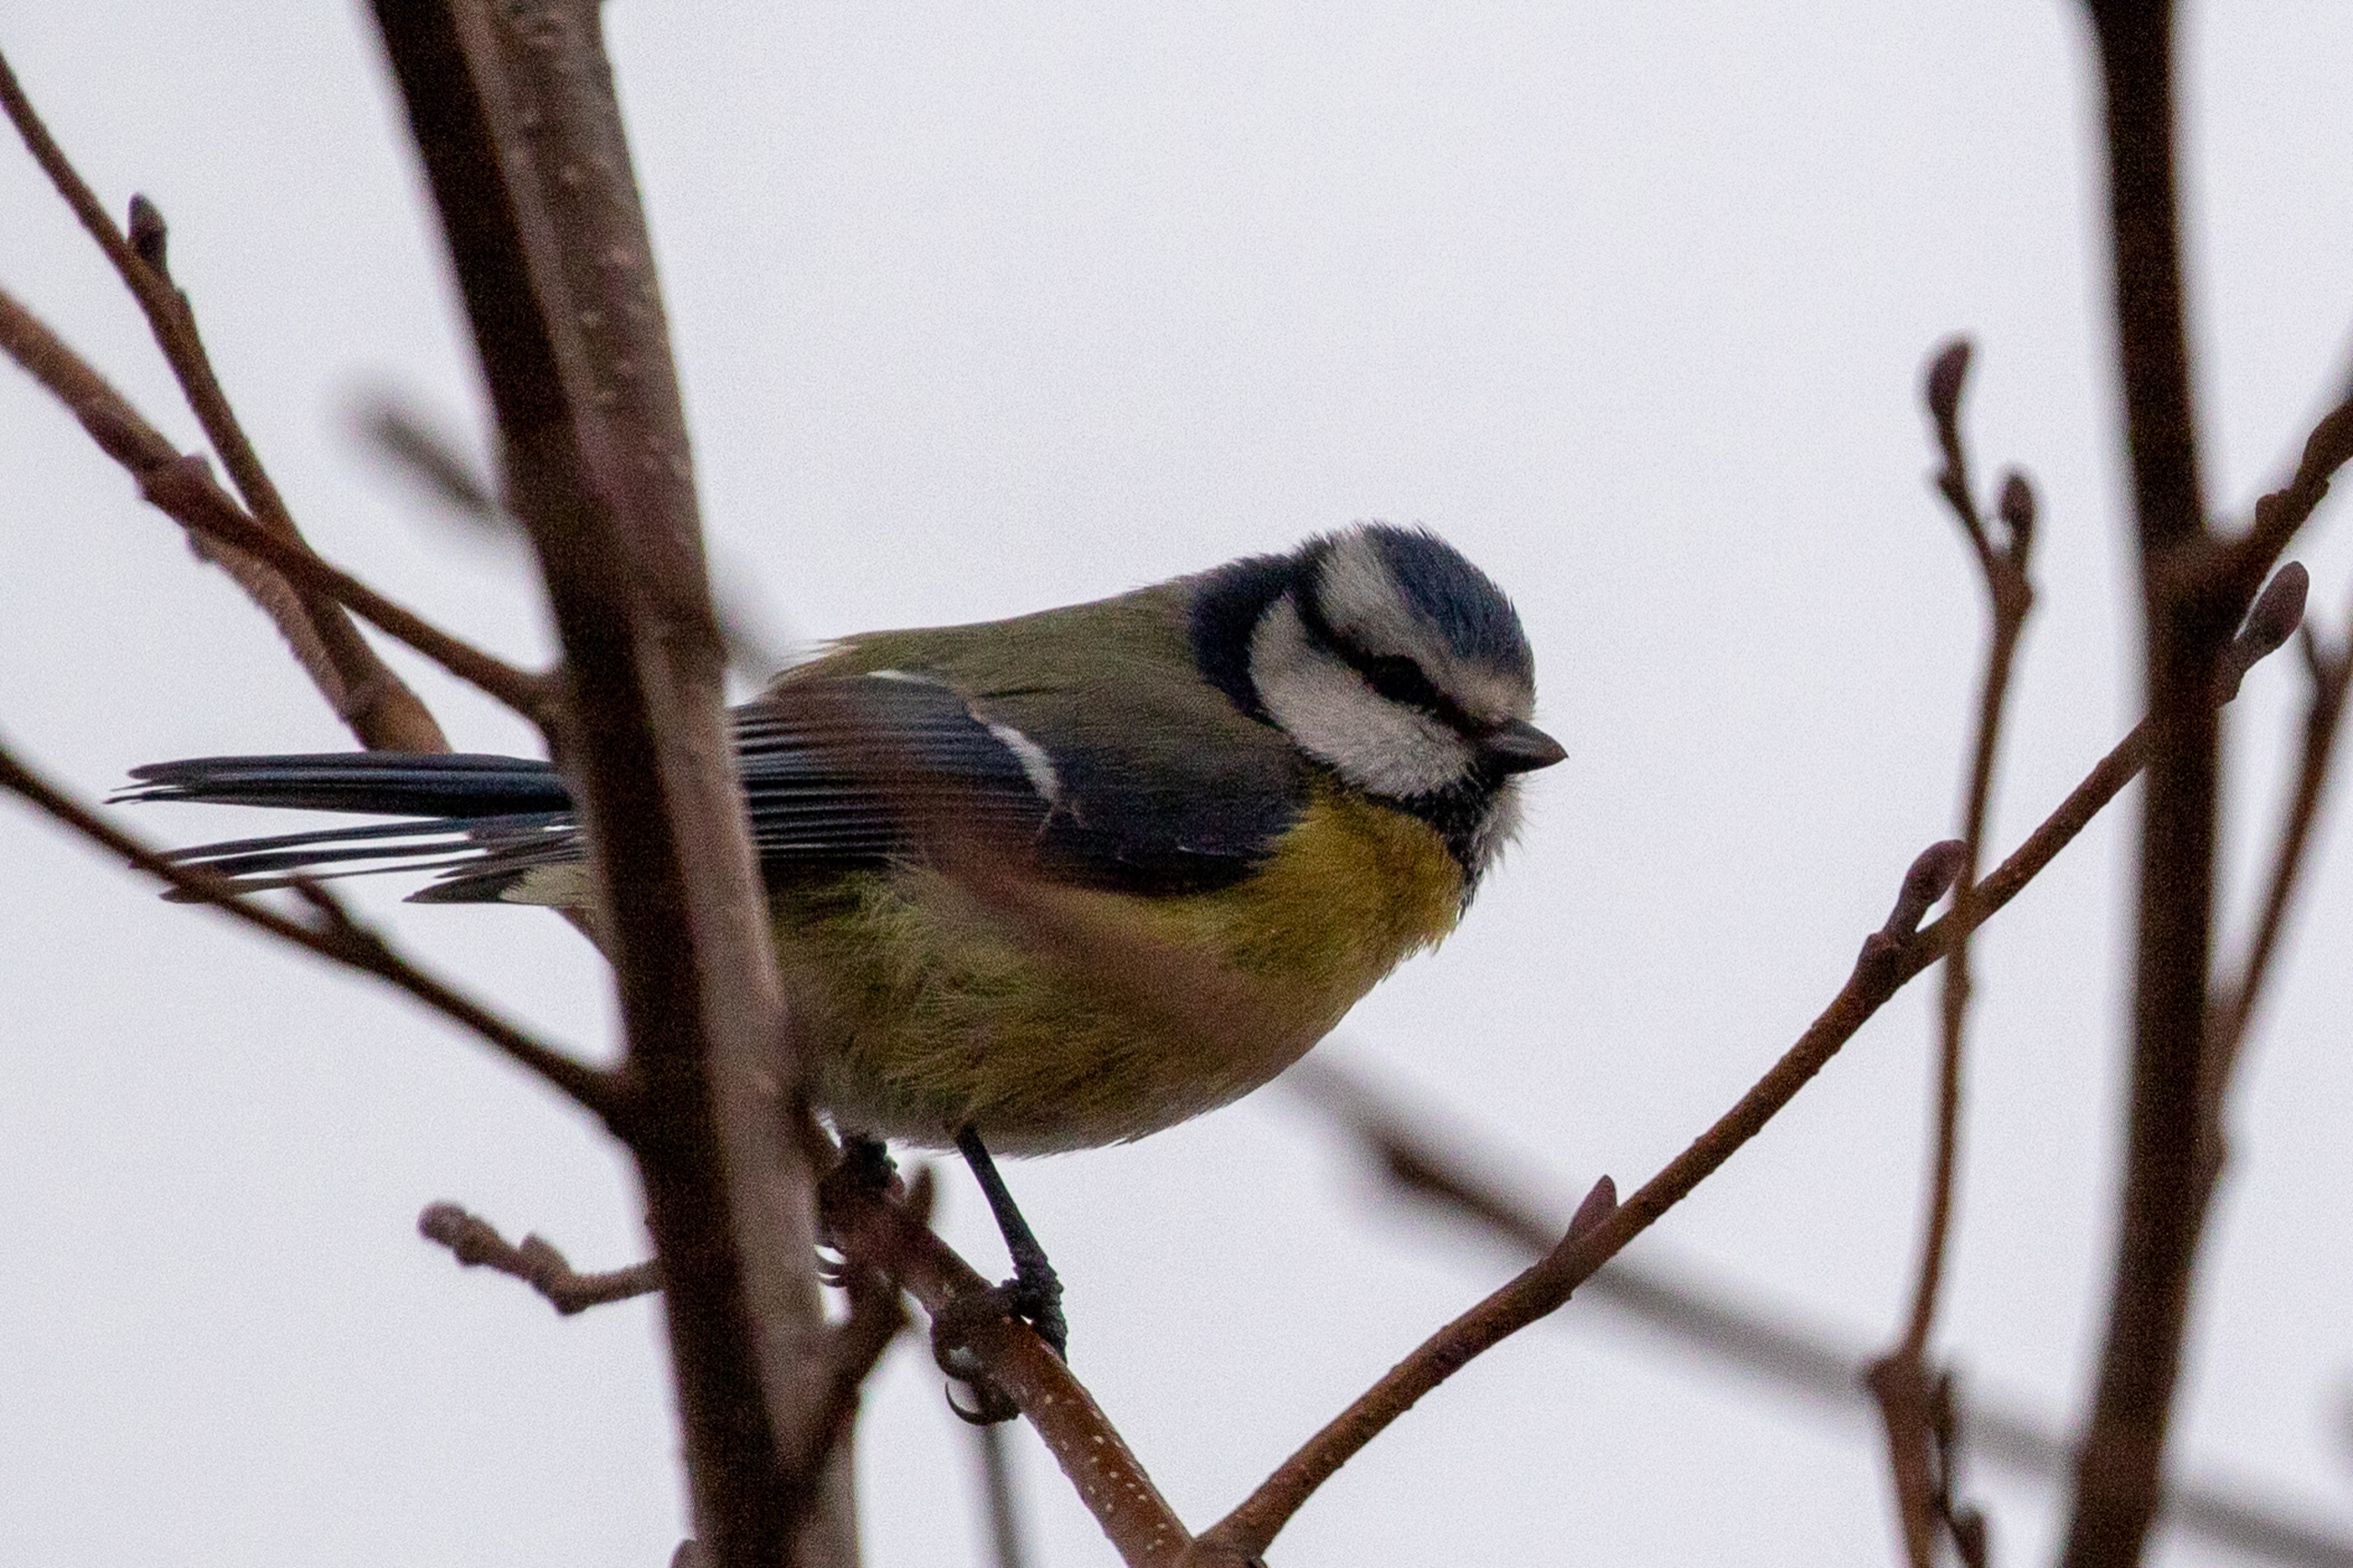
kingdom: Animalia
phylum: Chordata
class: Aves
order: Passeriformes
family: Paridae
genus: Cyanistes
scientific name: Cyanistes caeruleus
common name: Blåmejse
